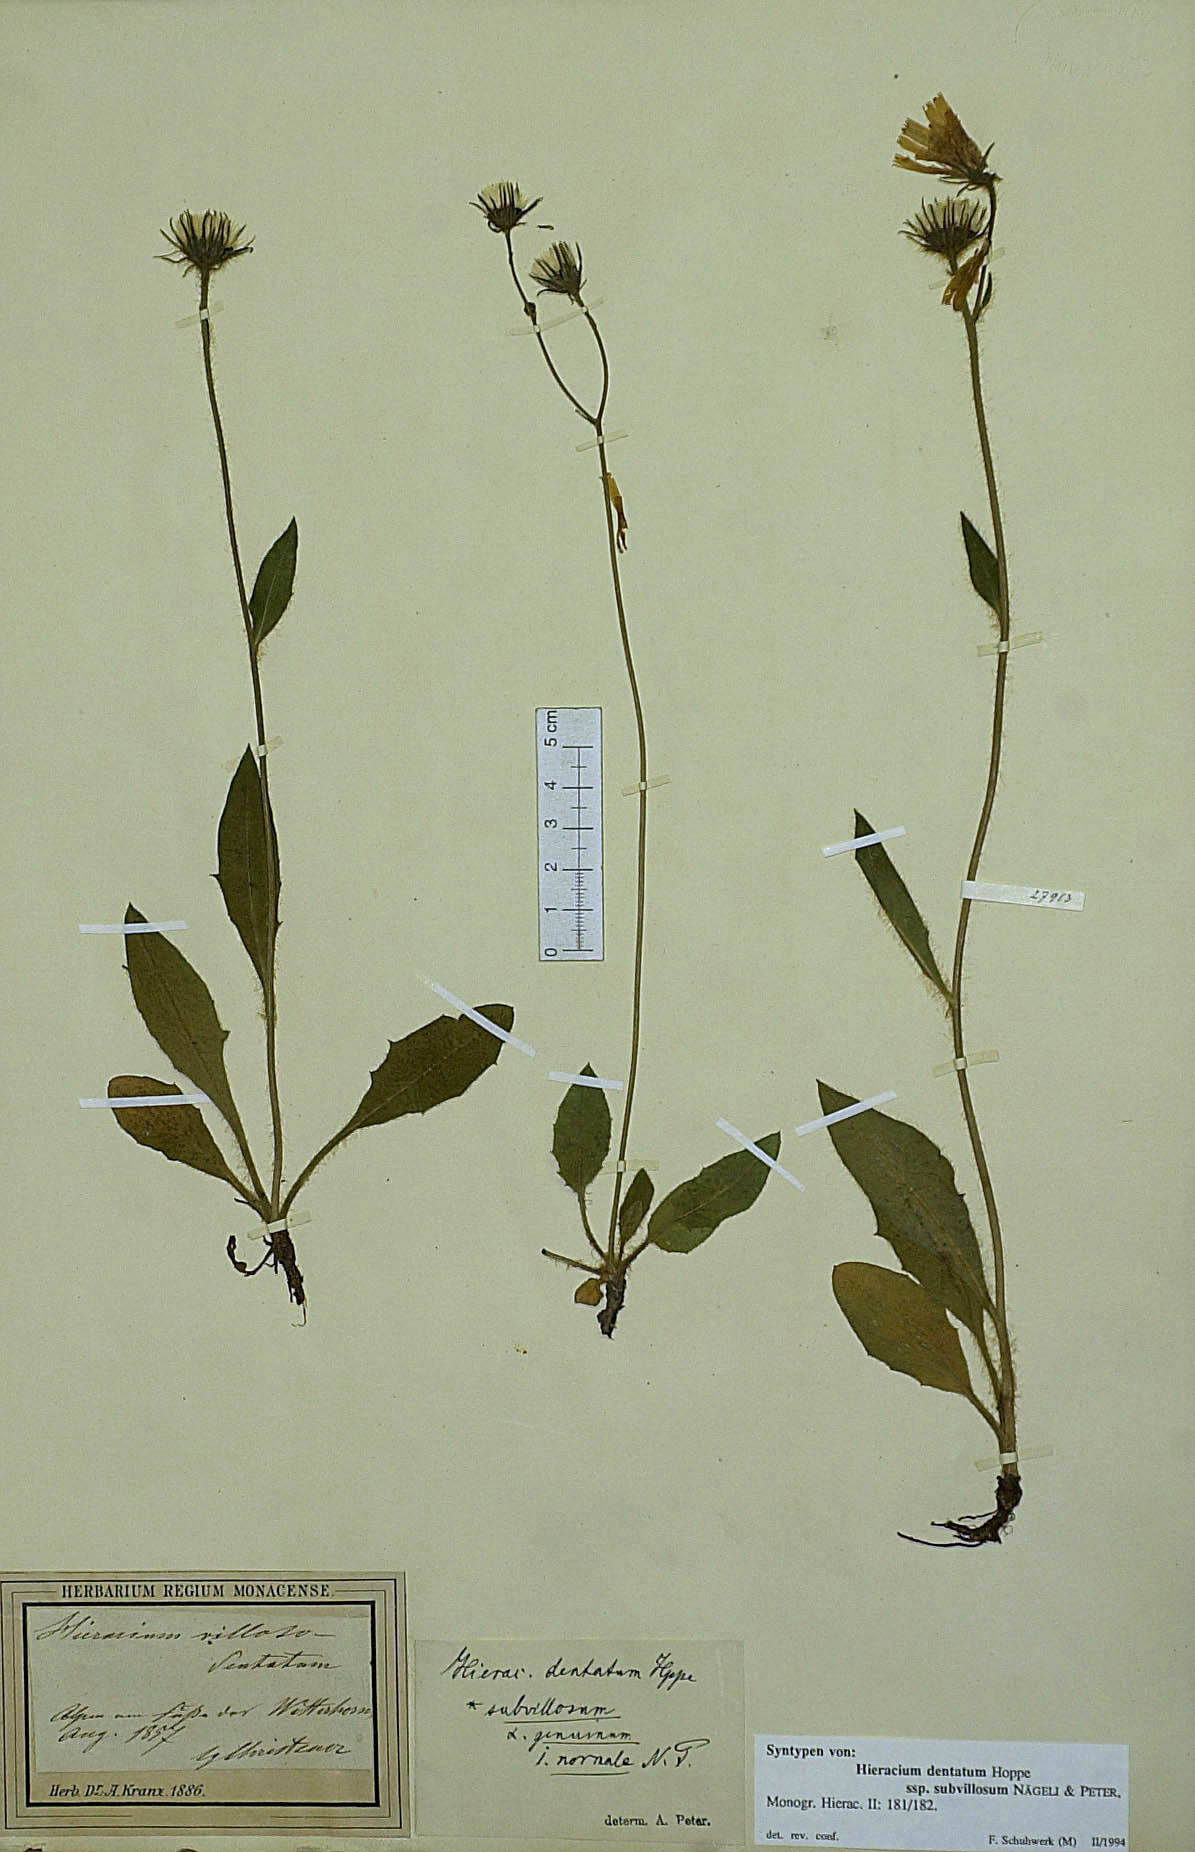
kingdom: Plantae
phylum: Tracheophyta
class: Magnoliopsida
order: Asterales
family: Asteraceae
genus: Hieracium
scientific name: Hieracium dentatum
